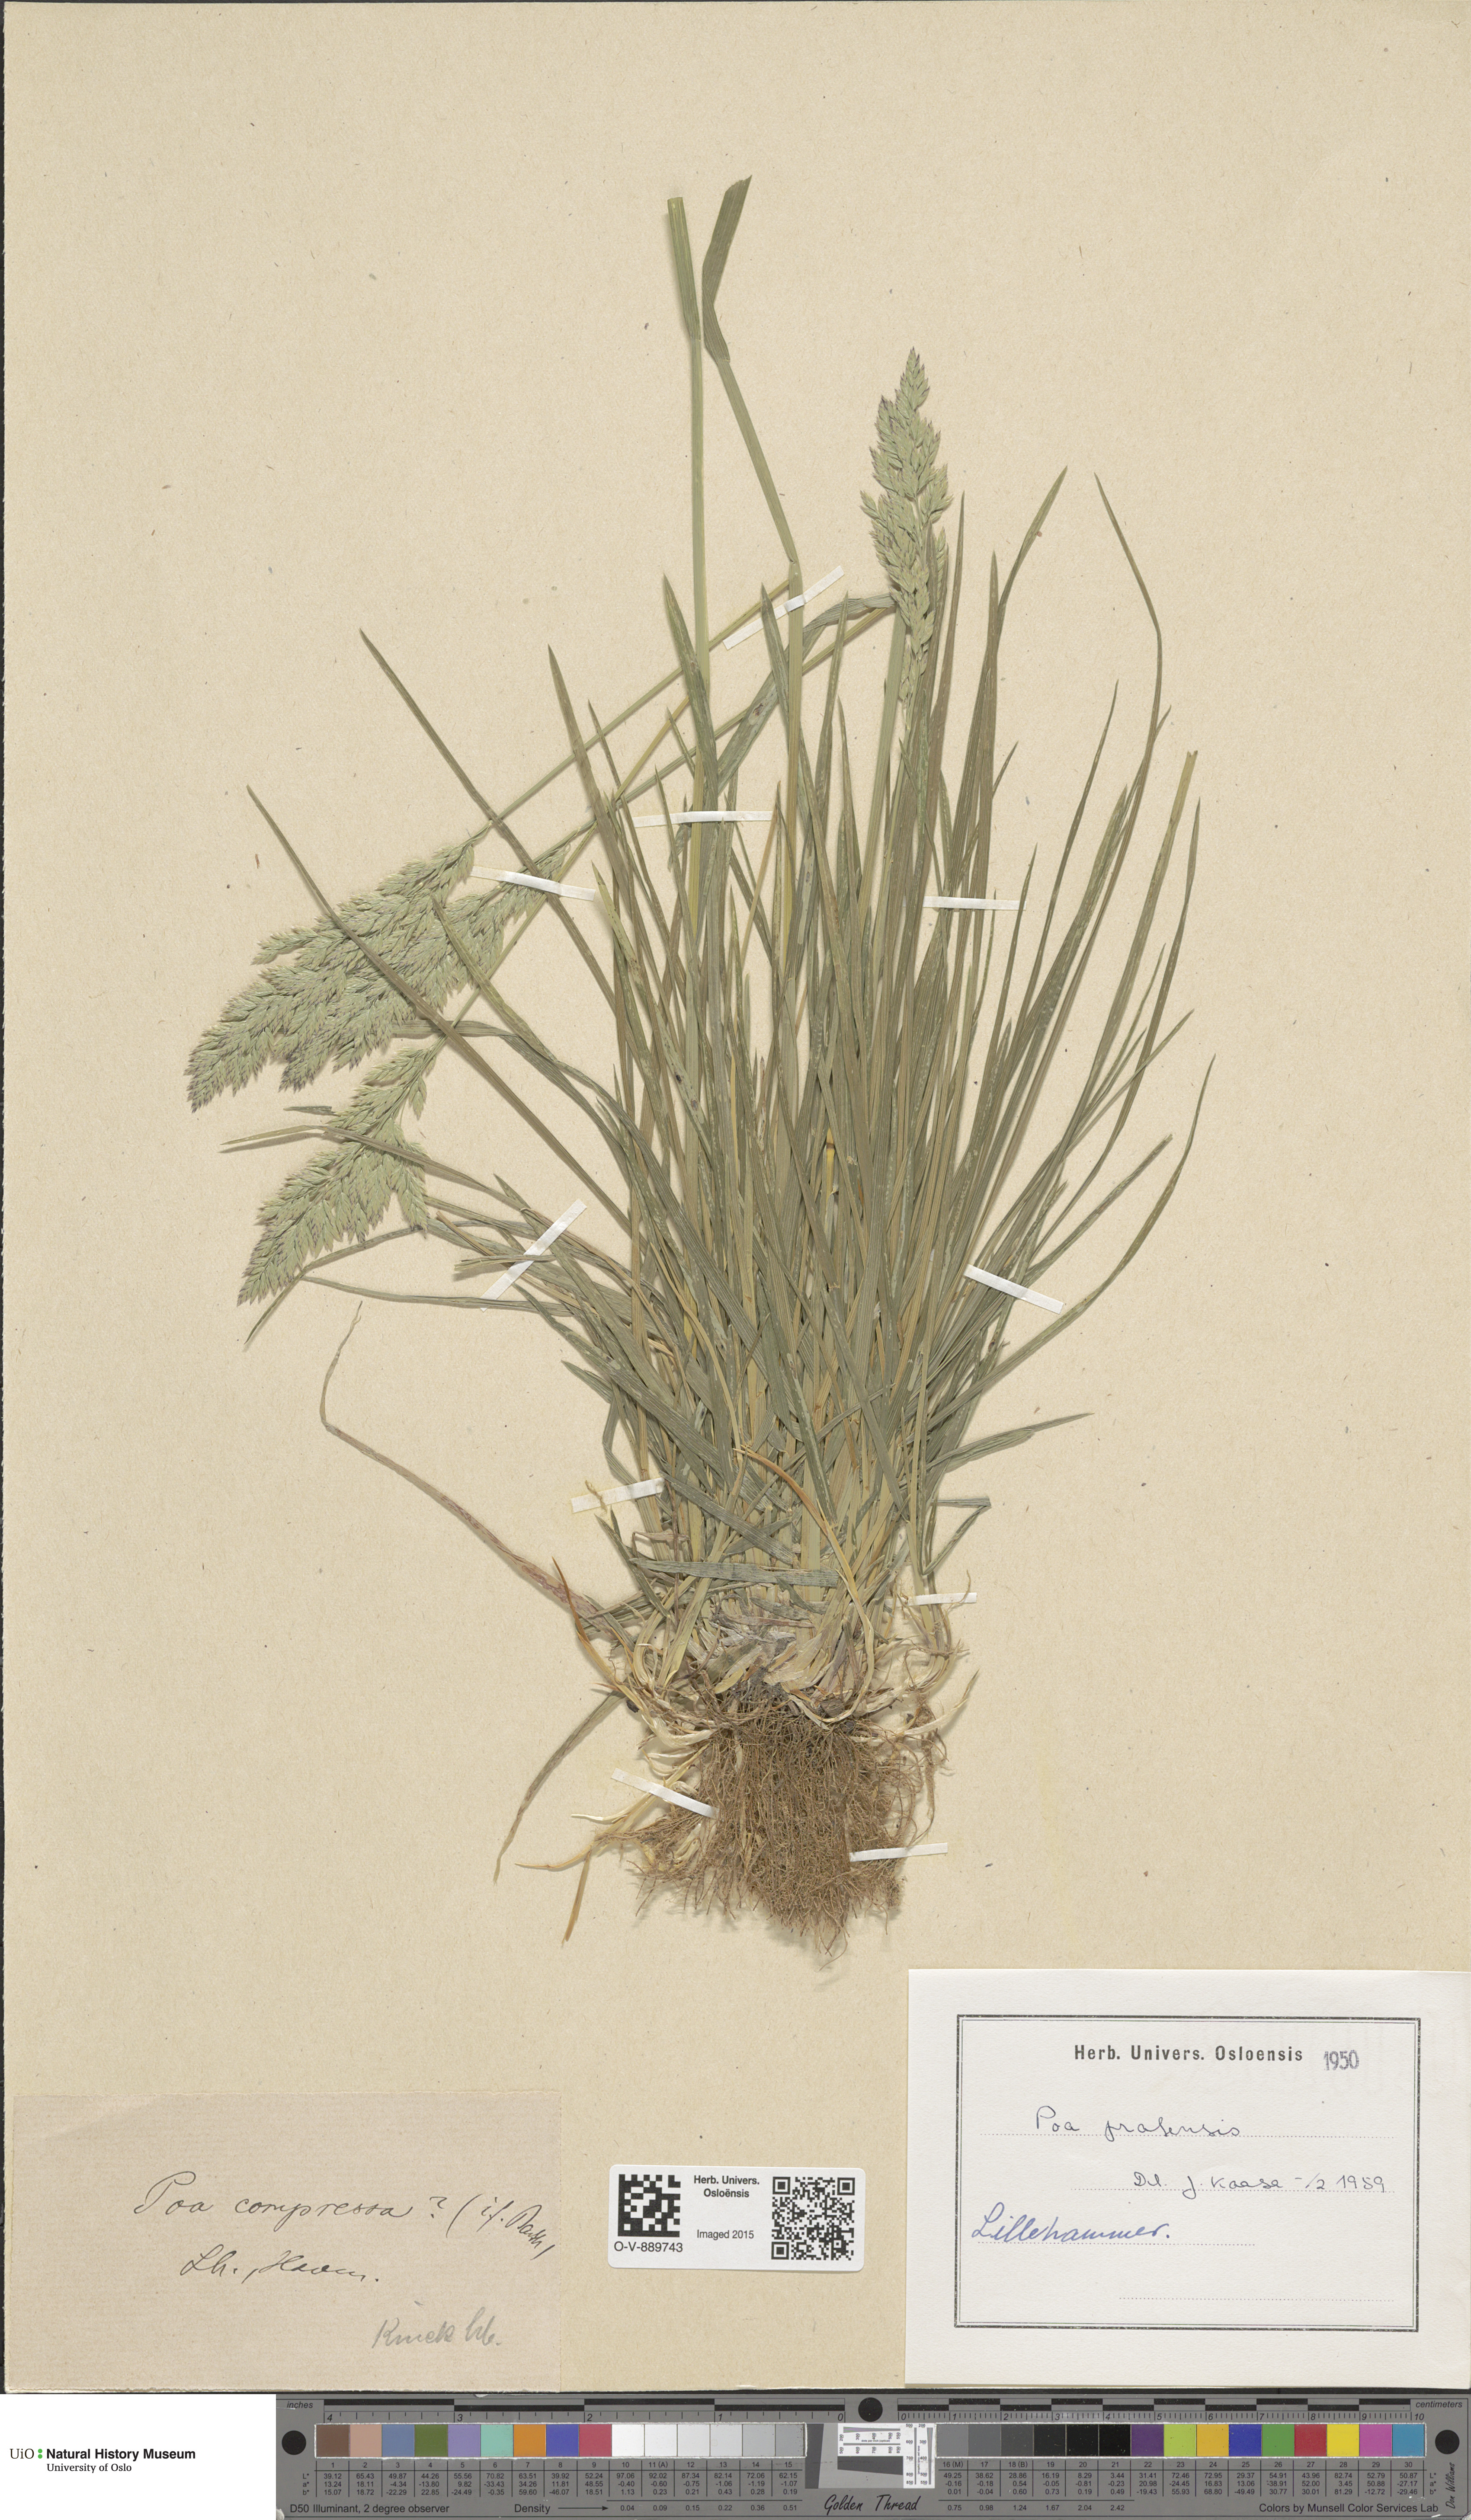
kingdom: Plantae
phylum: Tracheophyta
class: Liliopsida
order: Poales
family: Poaceae
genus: Poa
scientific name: Poa pratensis
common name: Kentucky bluegrass
